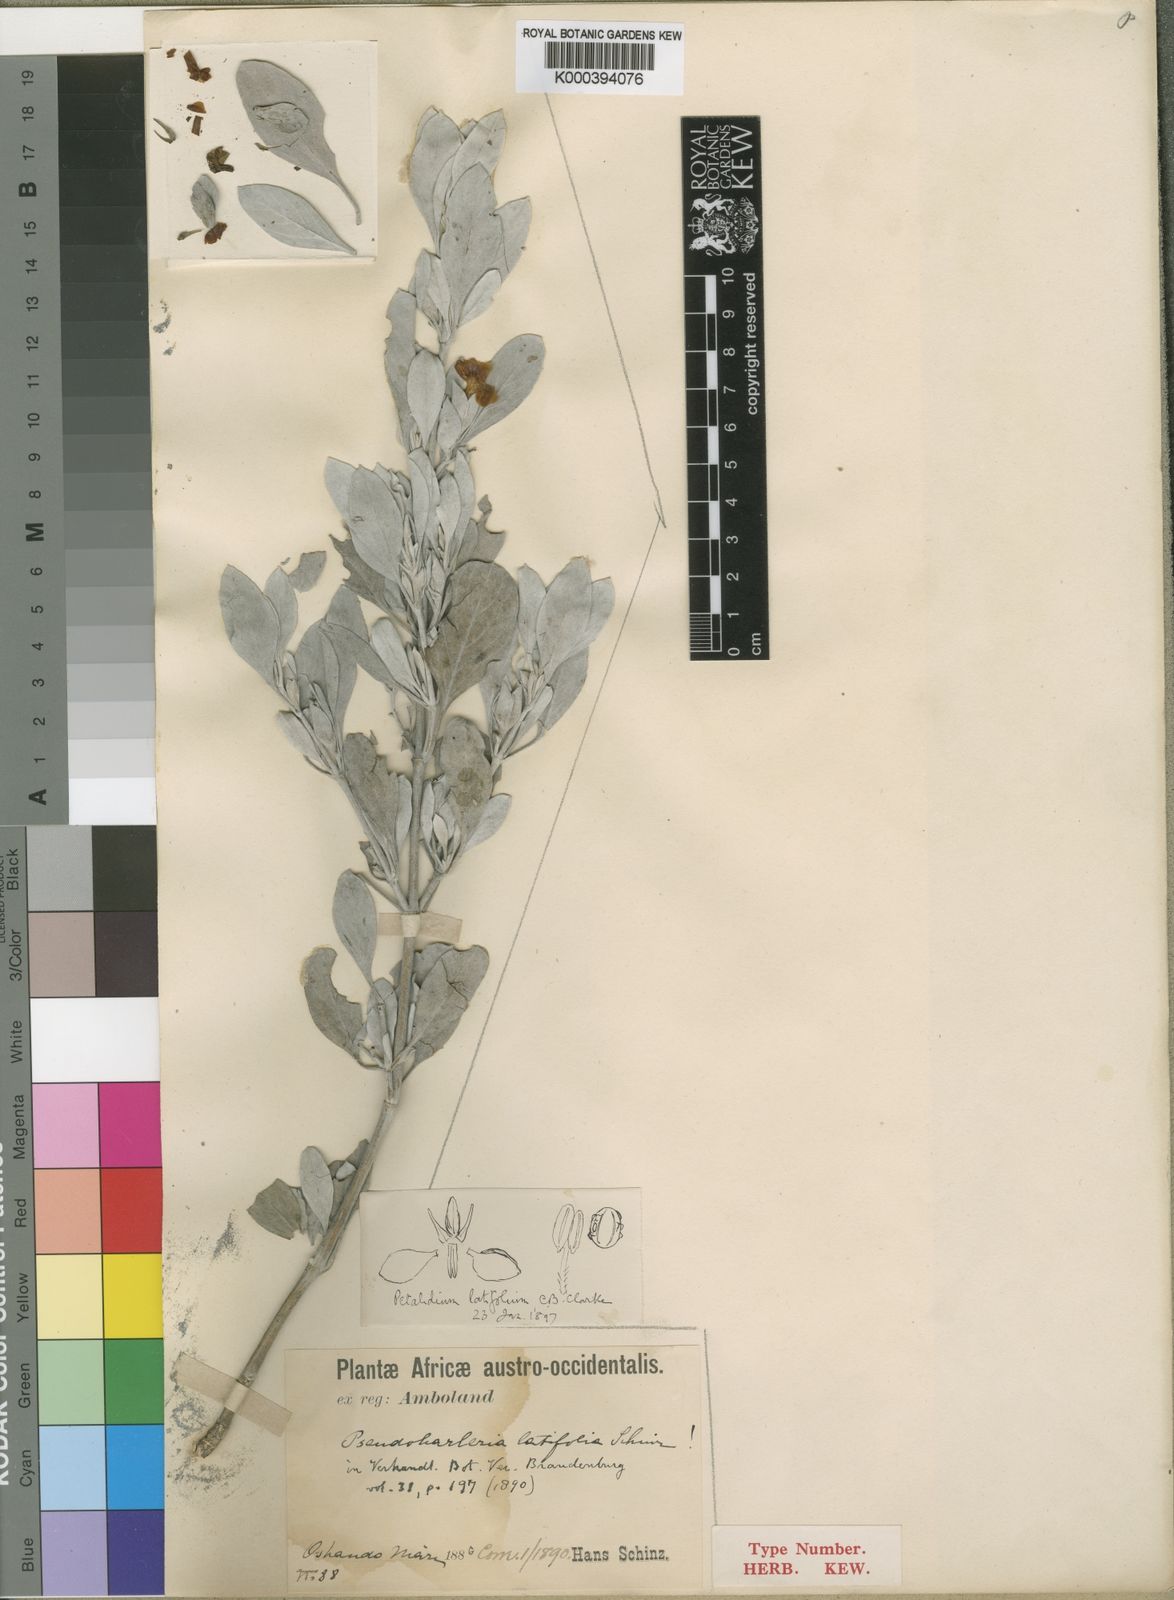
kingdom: Plantae
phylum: Tracheophyta
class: Magnoliopsida
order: Lamiales
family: Acanthaceae
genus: Petalidium
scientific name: Petalidium englerianum
